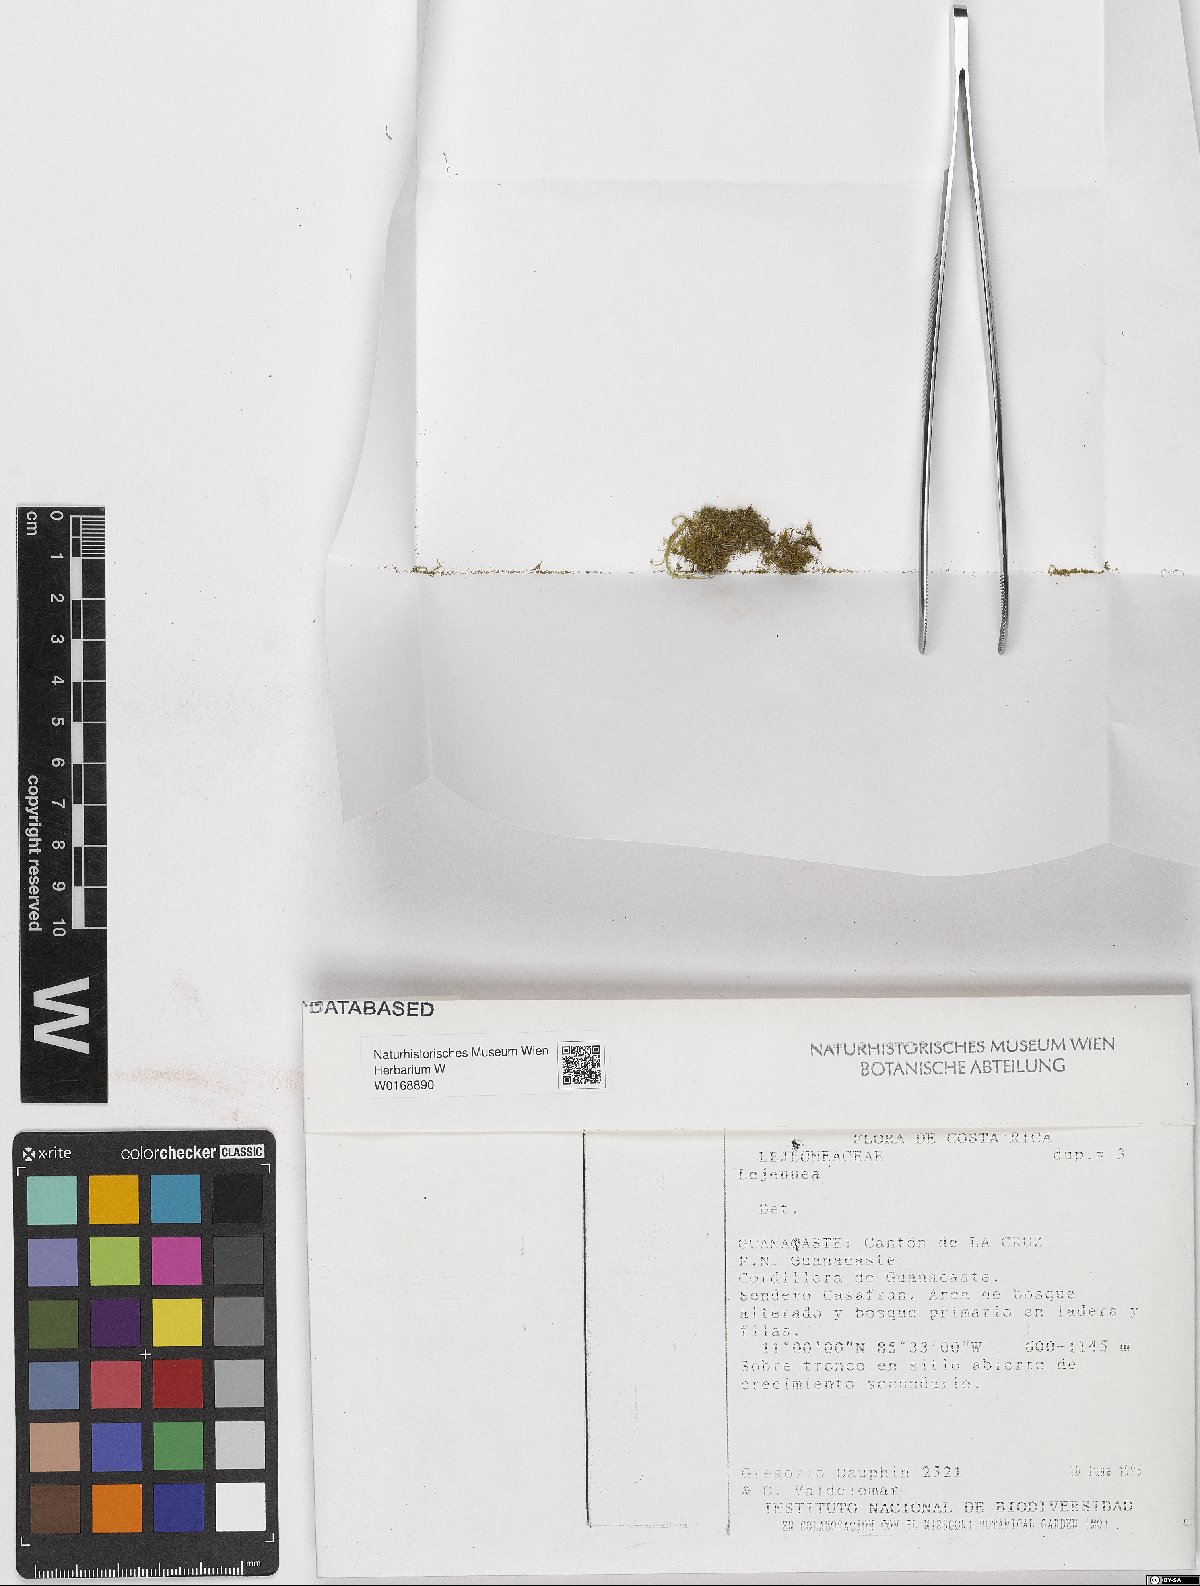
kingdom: Plantae
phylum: Marchantiophyta
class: Jungermanniopsida
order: Porellales
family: Lejeuneaceae
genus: Lejeunea
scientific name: Lejeunea
